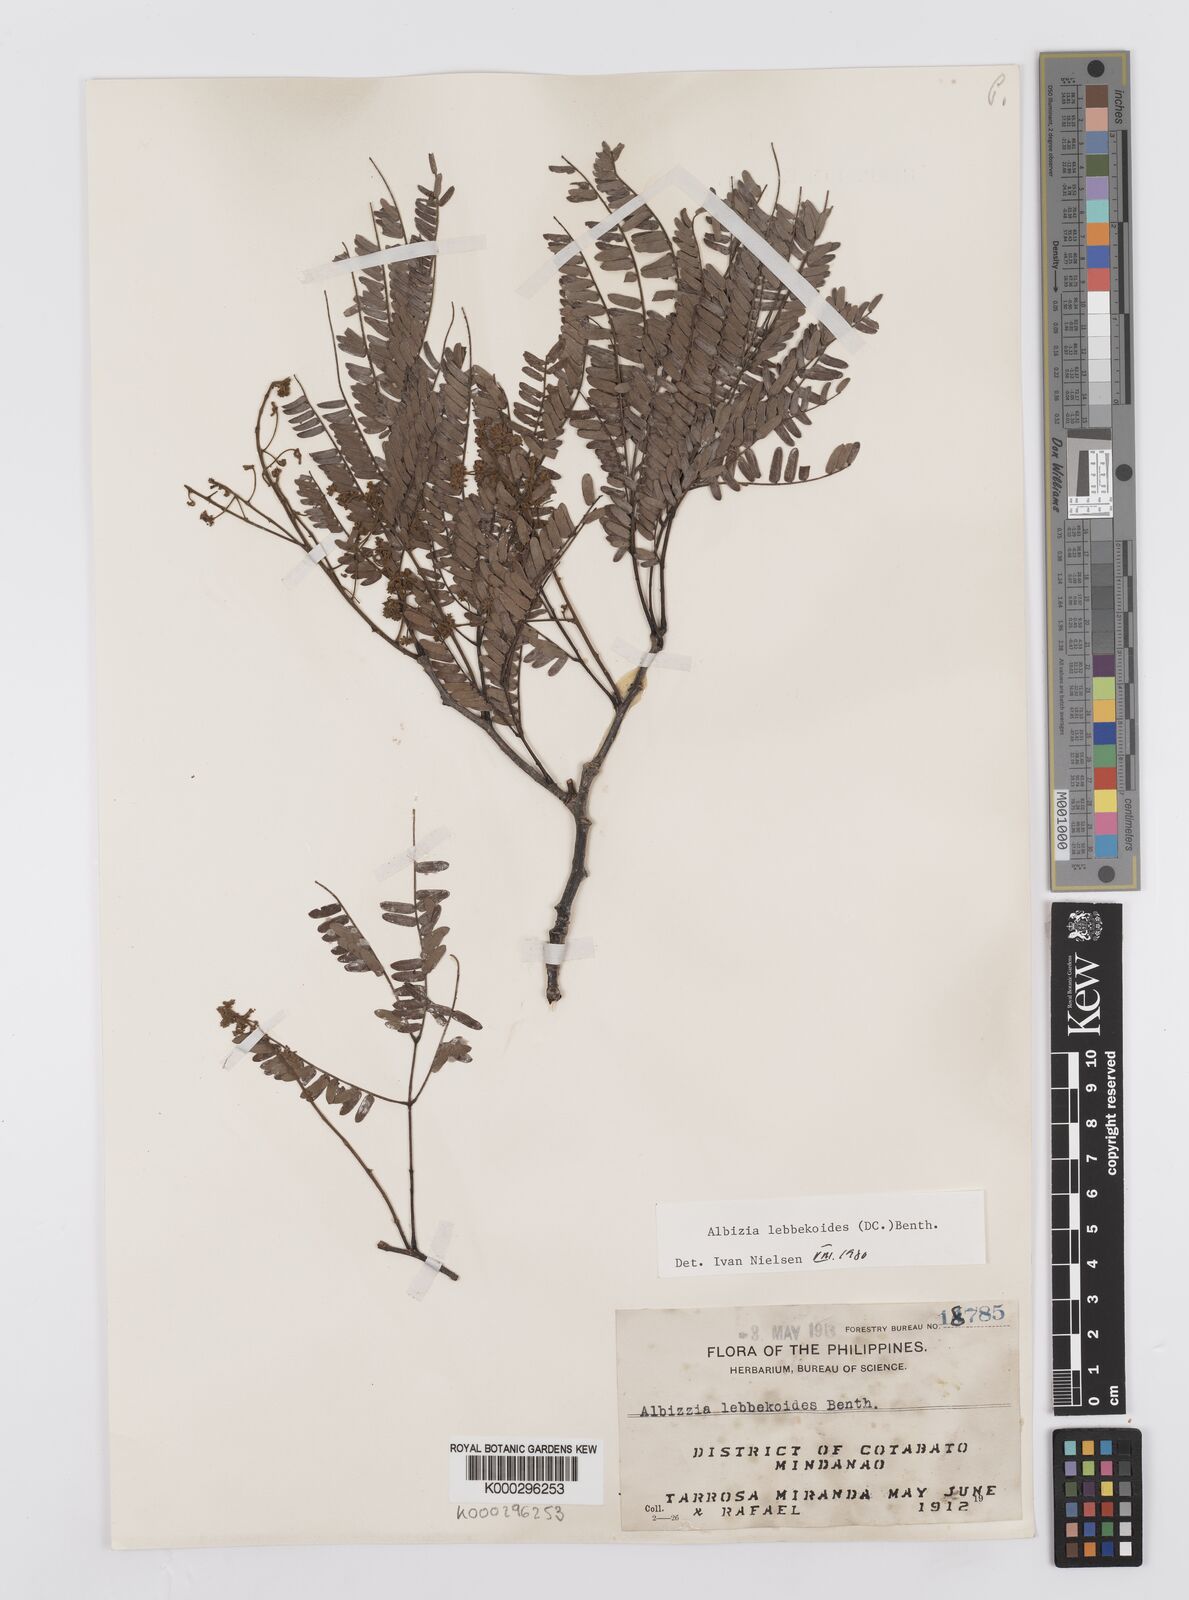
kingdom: Plantae
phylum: Tracheophyta
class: Magnoliopsida
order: Fabales
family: Fabaceae
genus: Albizia
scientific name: Albizia lebbekoides
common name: Indian albizia
